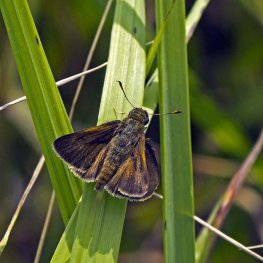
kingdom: Animalia
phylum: Arthropoda
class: Insecta
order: Lepidoptera
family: Hesperiidae
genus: Polites
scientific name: Polites themistocles
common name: Tawny-edged Skipper
